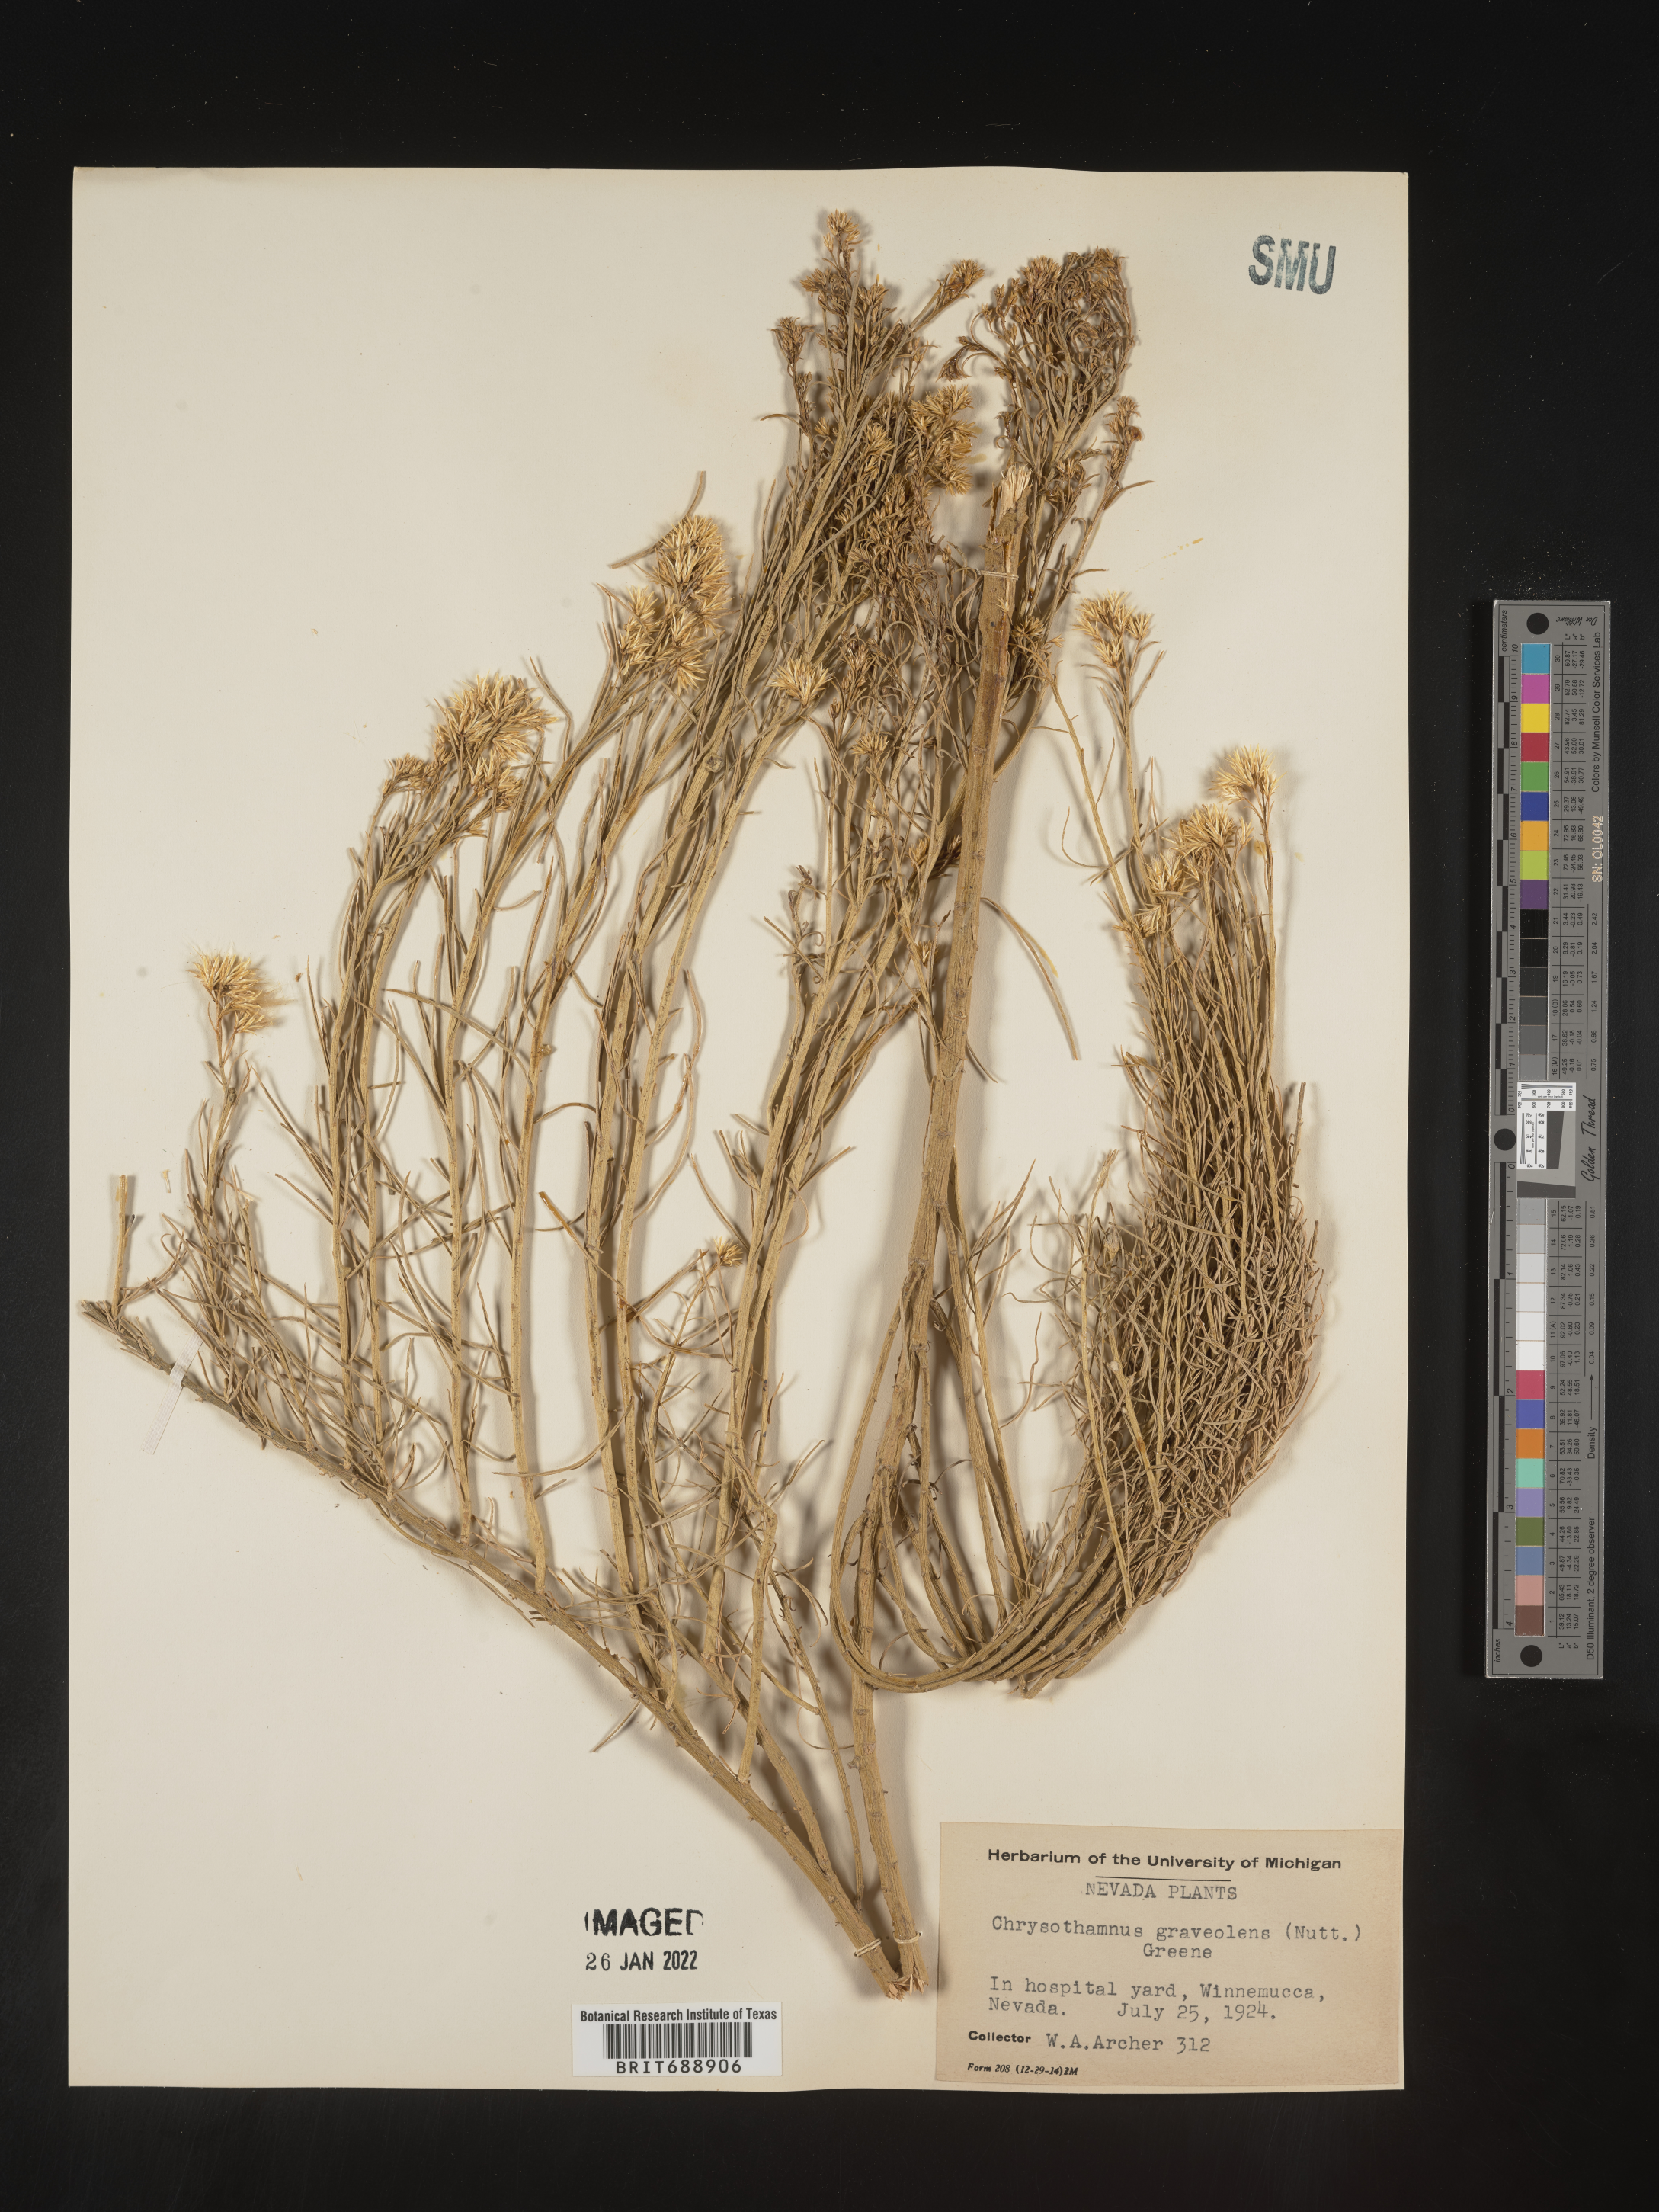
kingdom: Plantae
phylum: Tracheophyta
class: Magnoliopsida
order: Asterales
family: Asteraceae
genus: Chrysothamnus
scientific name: Chrysothamnus
